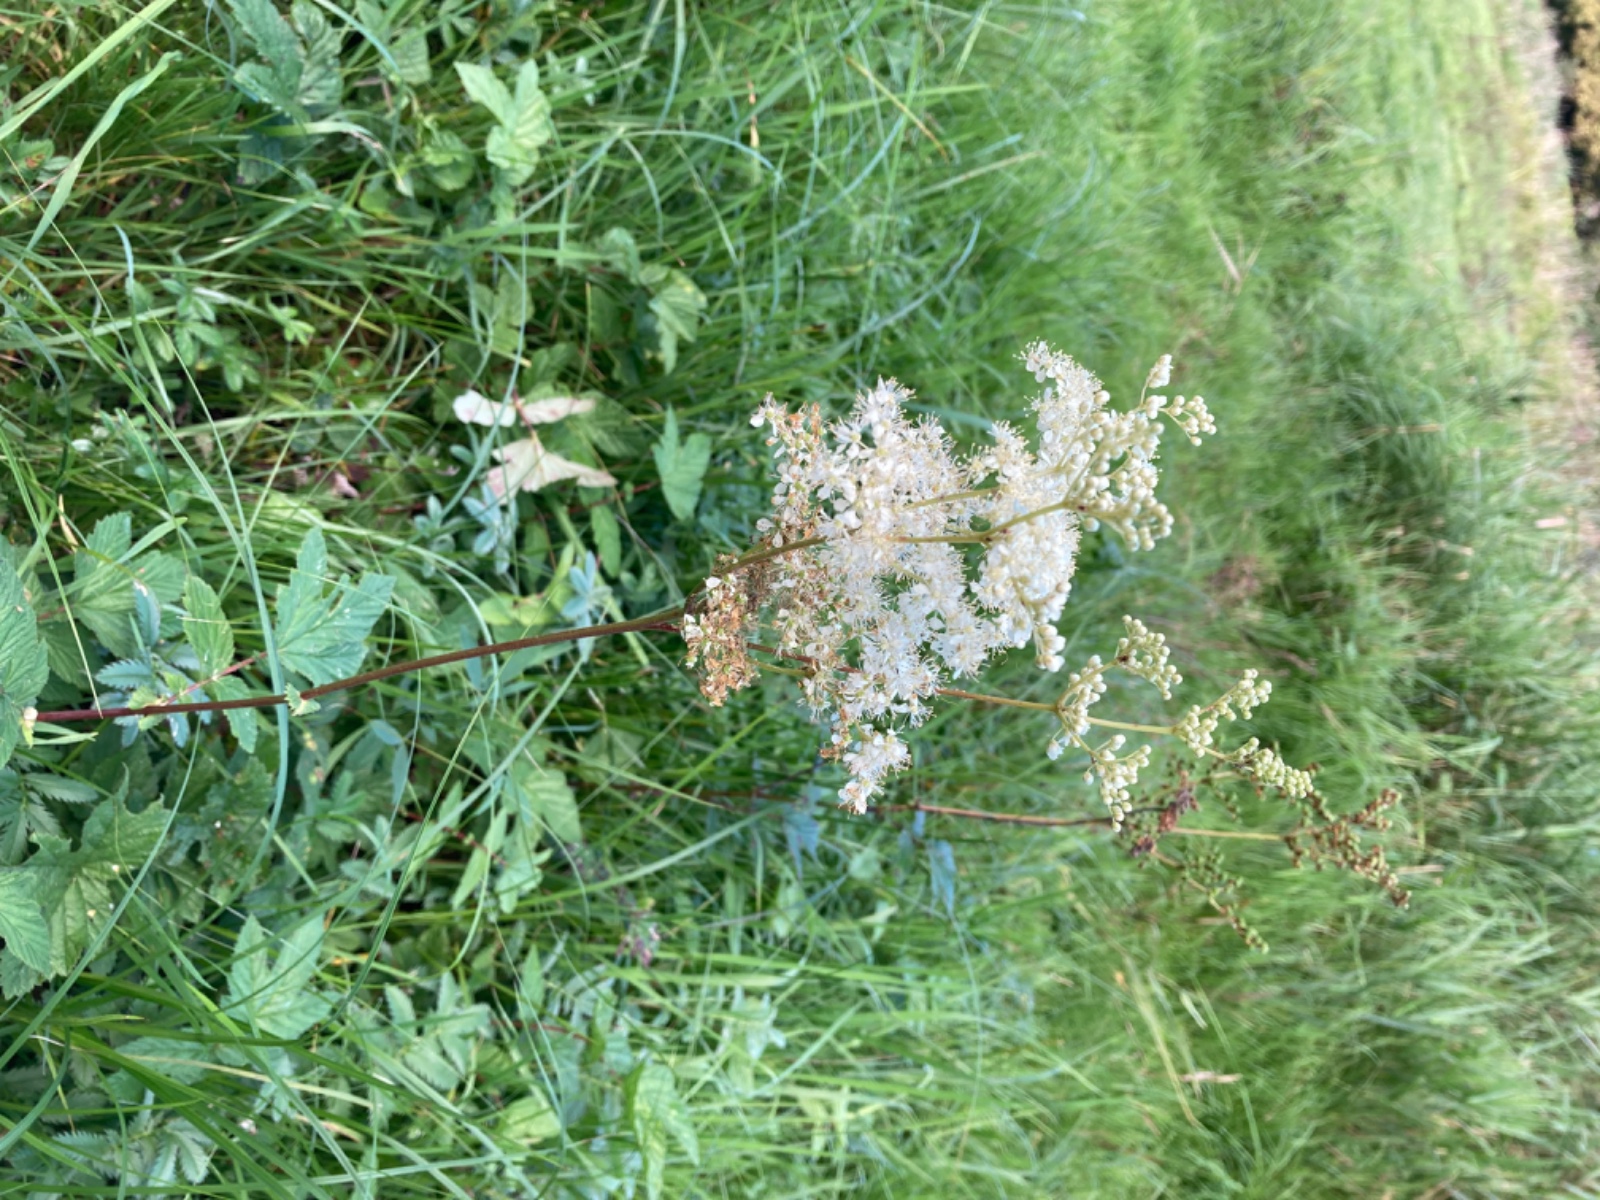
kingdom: Fungi
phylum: Basidiomycota
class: Pucciniomycetes
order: Pucciniales
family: Raveneliaceae
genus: Triphragmium
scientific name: Triphragmium ulmariae
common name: almindelig mjødurtrust
